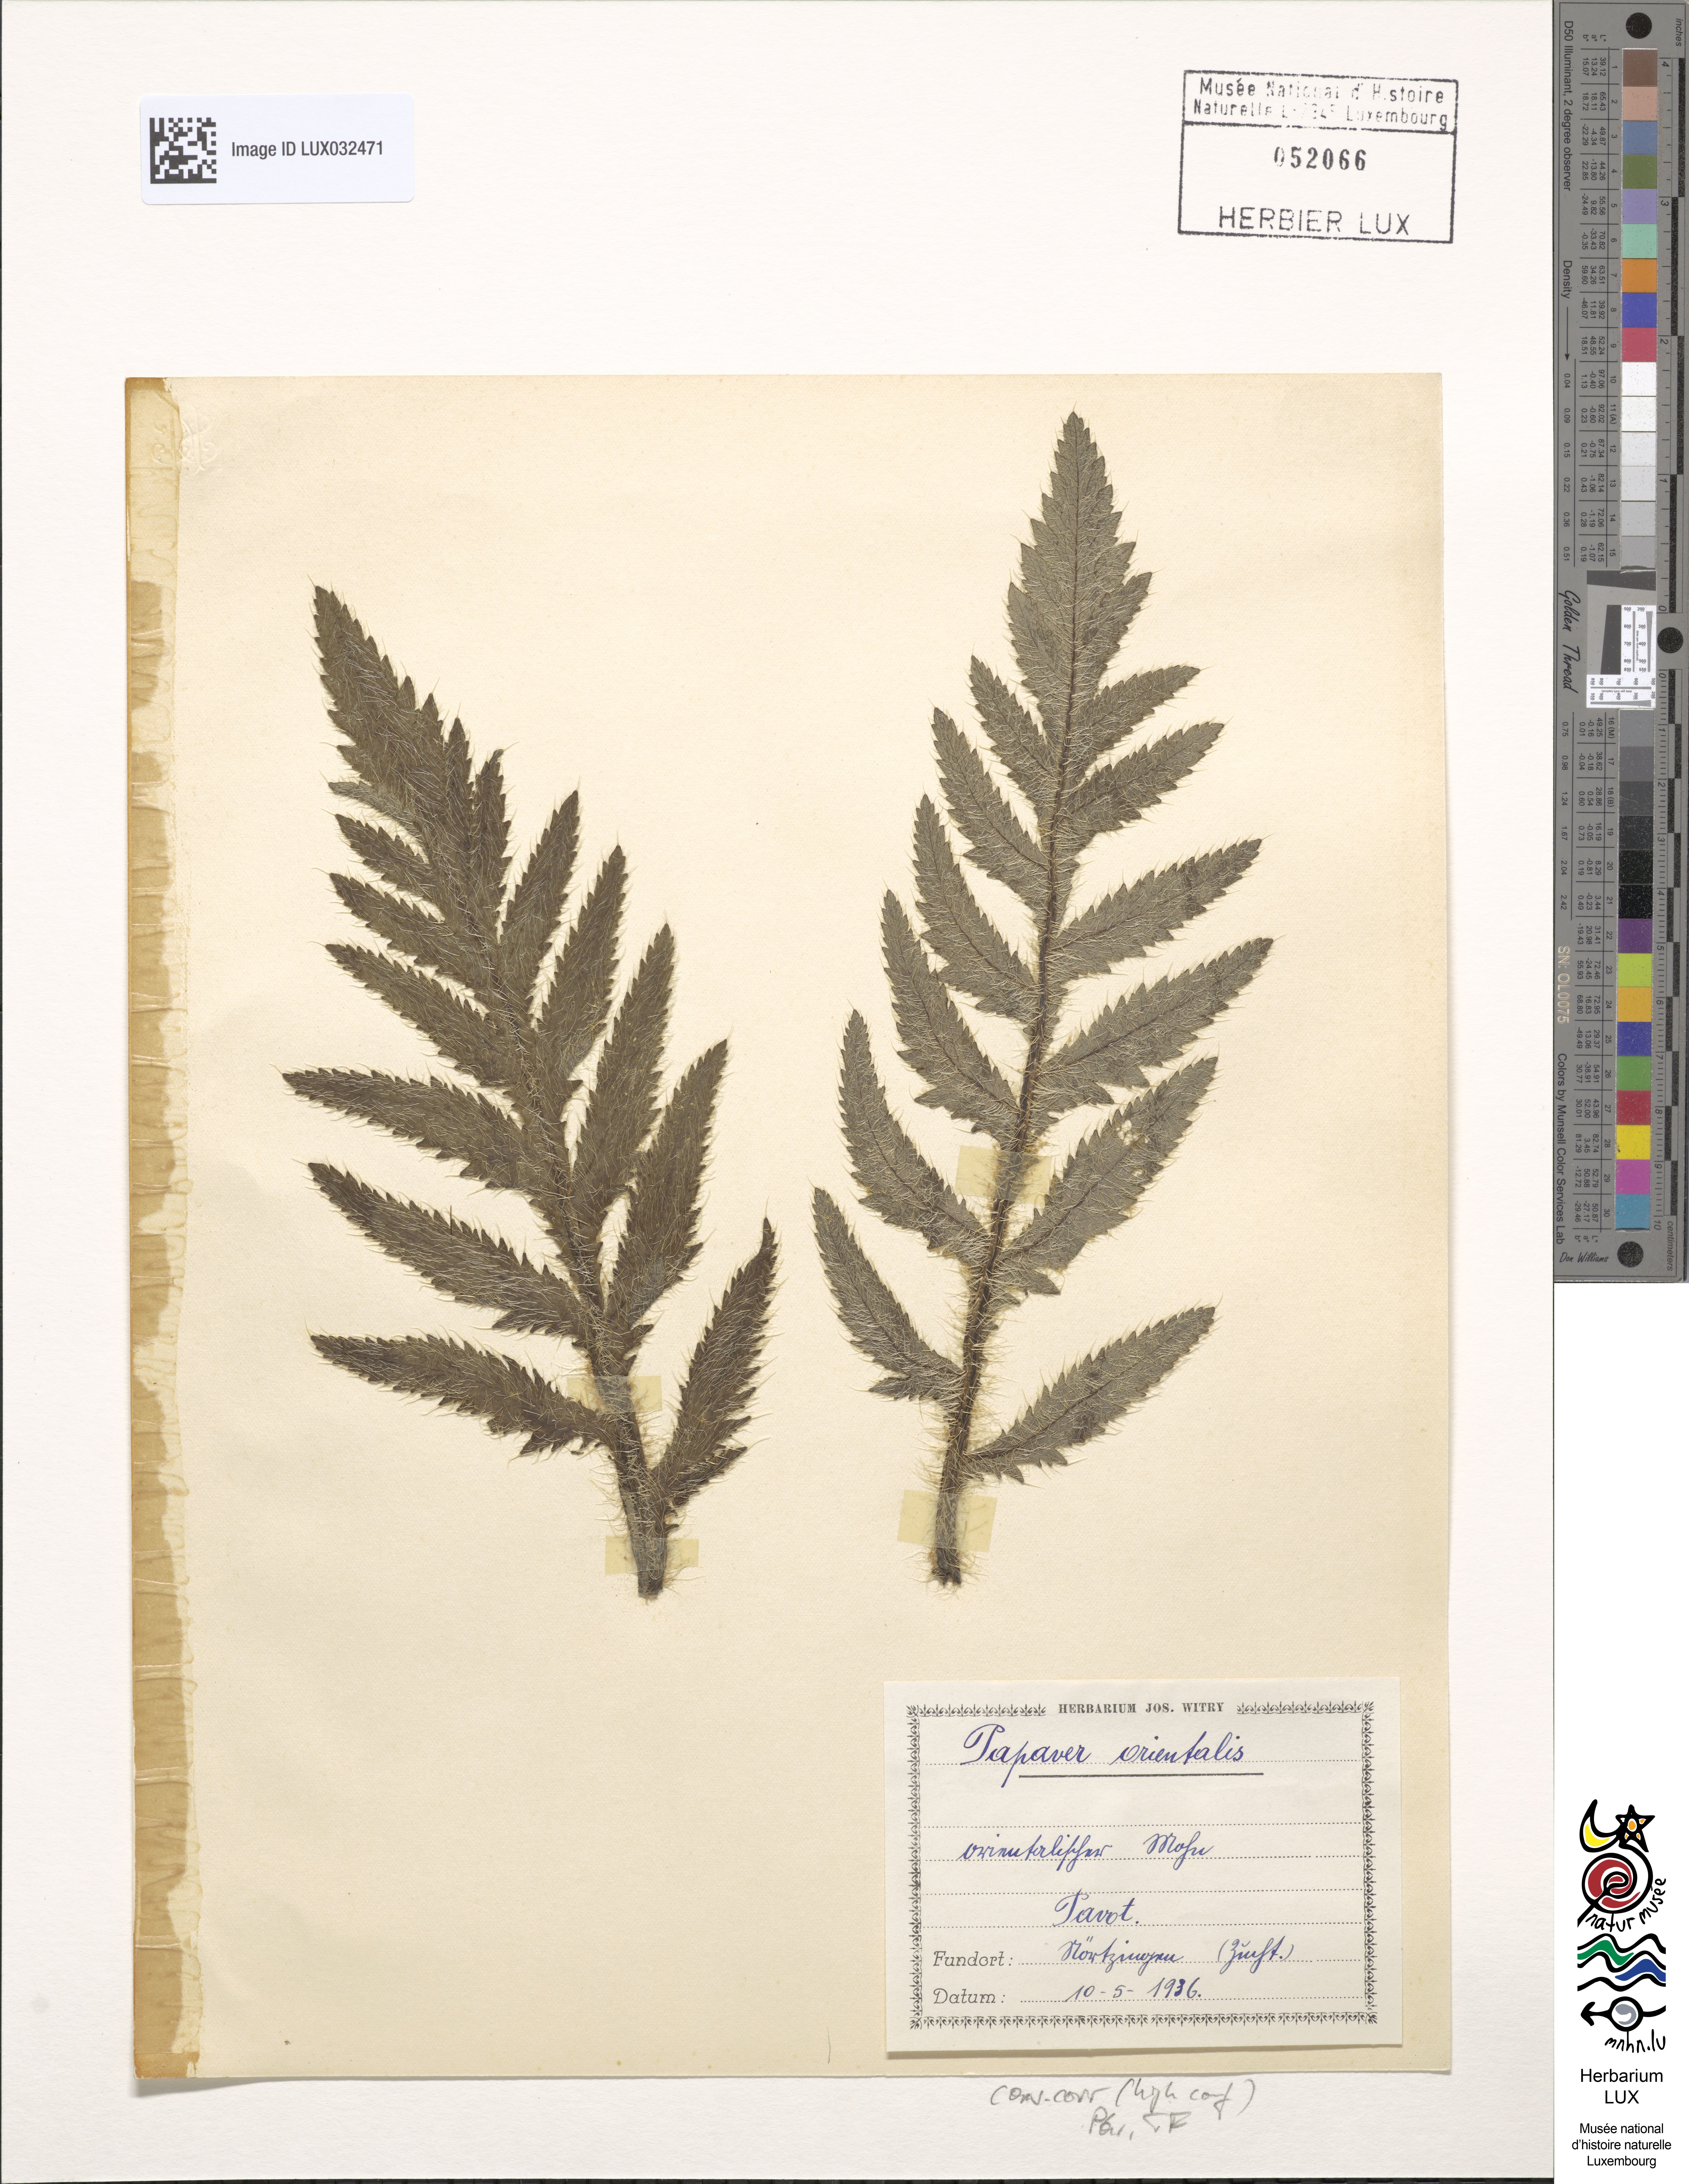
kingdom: Plantae
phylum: Tracheophyta
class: Magnoliopsida
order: Ranunculales
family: Papaveraceae
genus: Papaver
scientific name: Papaver orientale
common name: Oriental poppy
